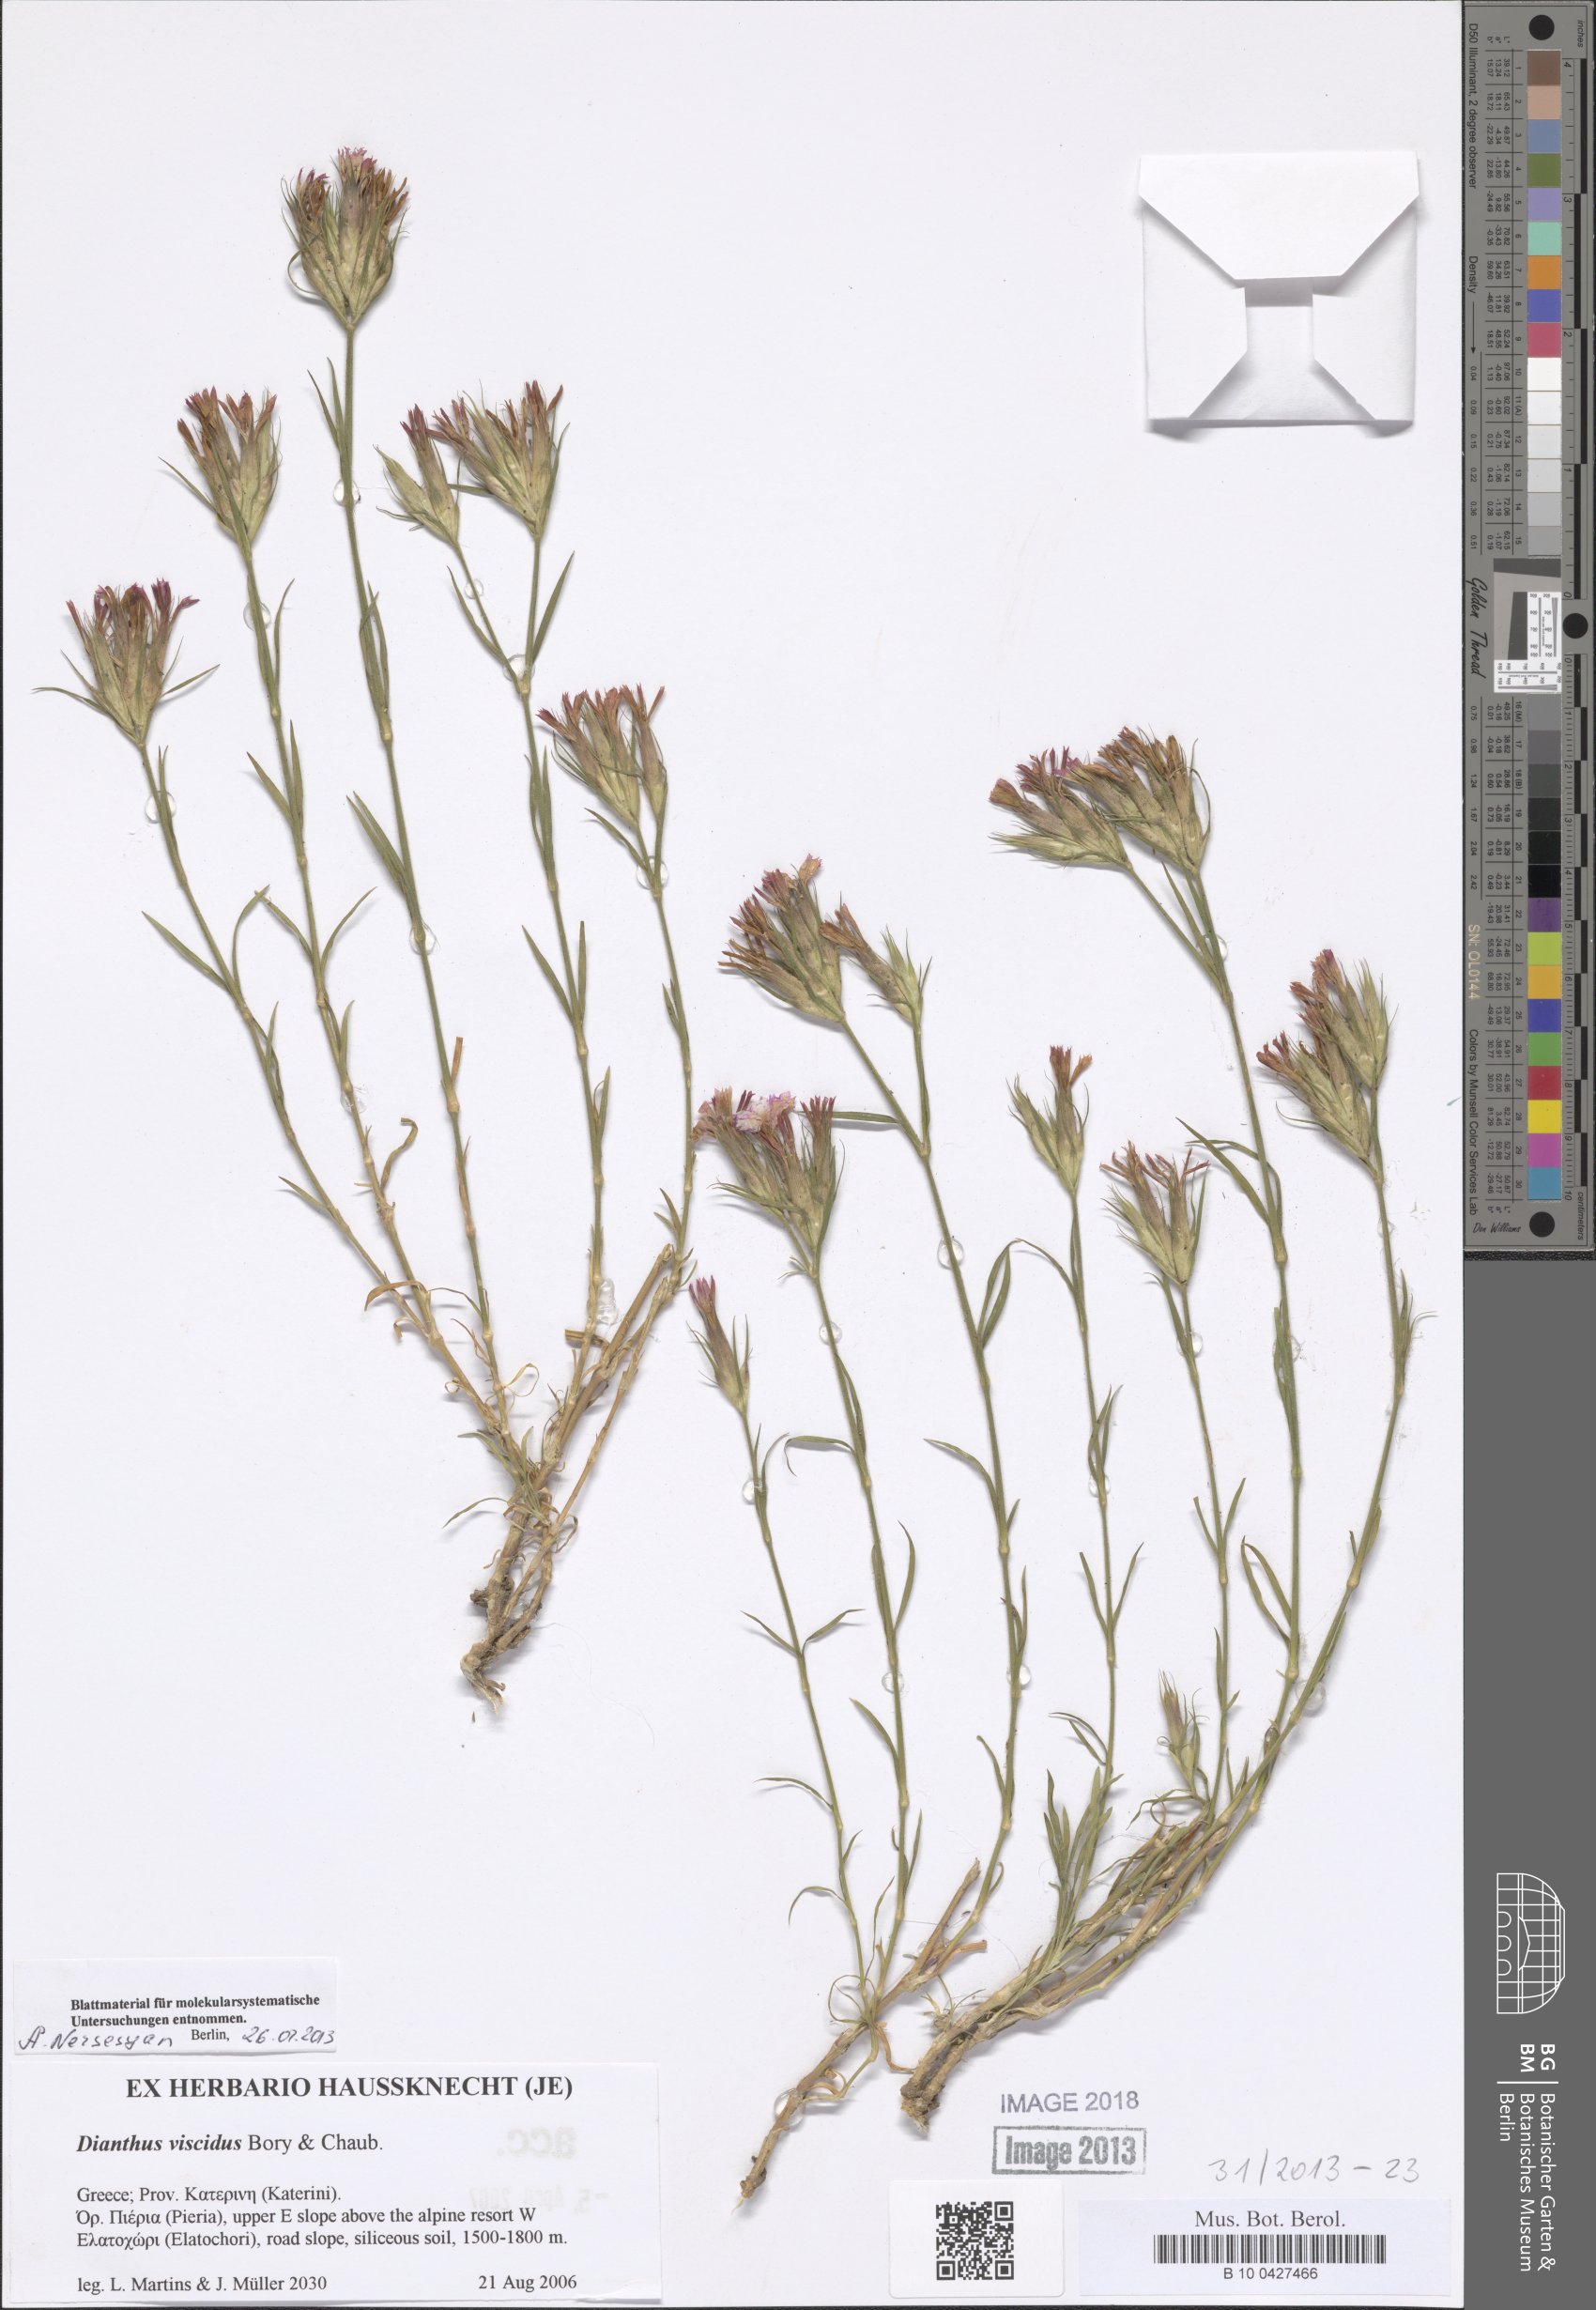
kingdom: Plantae
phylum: Tracheophyta
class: Magnoliopsida
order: Caryophyllales
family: Caryophyllaceae
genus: Dianthus
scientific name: Dianthus viscidus
